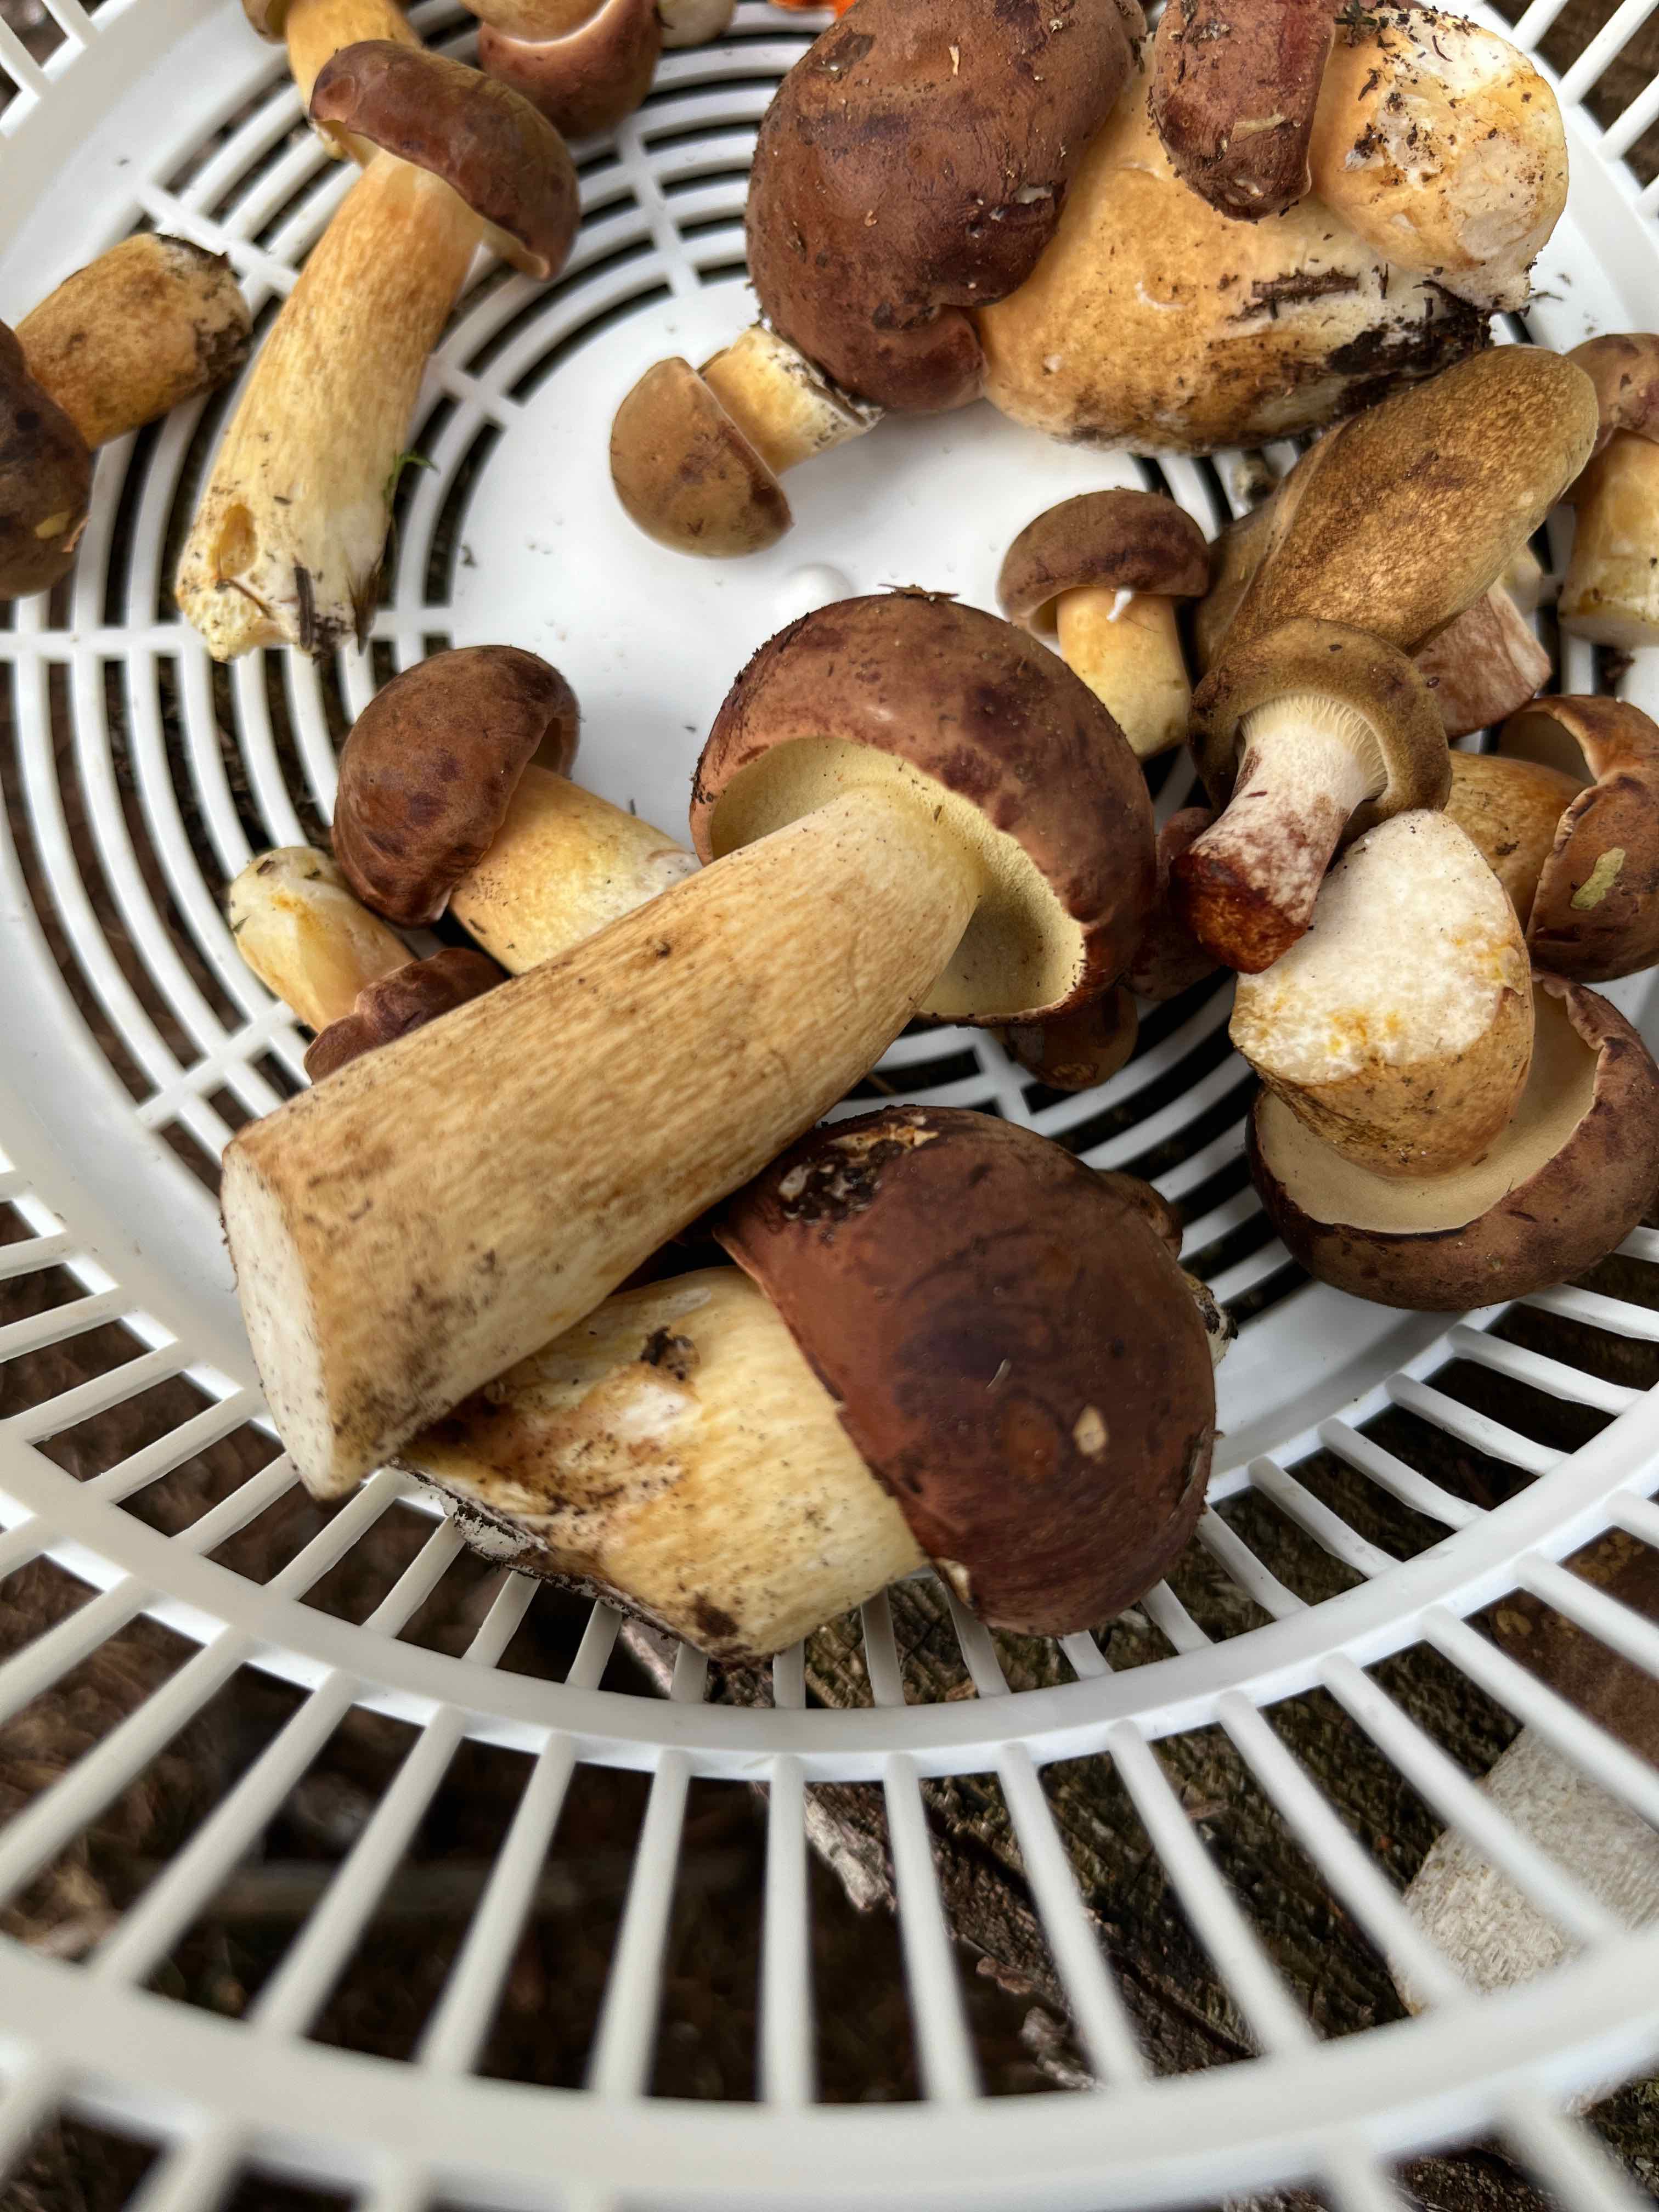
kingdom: Fungi
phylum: Basidiomycota
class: Agaricomycetes
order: Boletales
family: Boletaceae
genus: Imleria
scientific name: Imleria badia
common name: brunstokket rørhat
